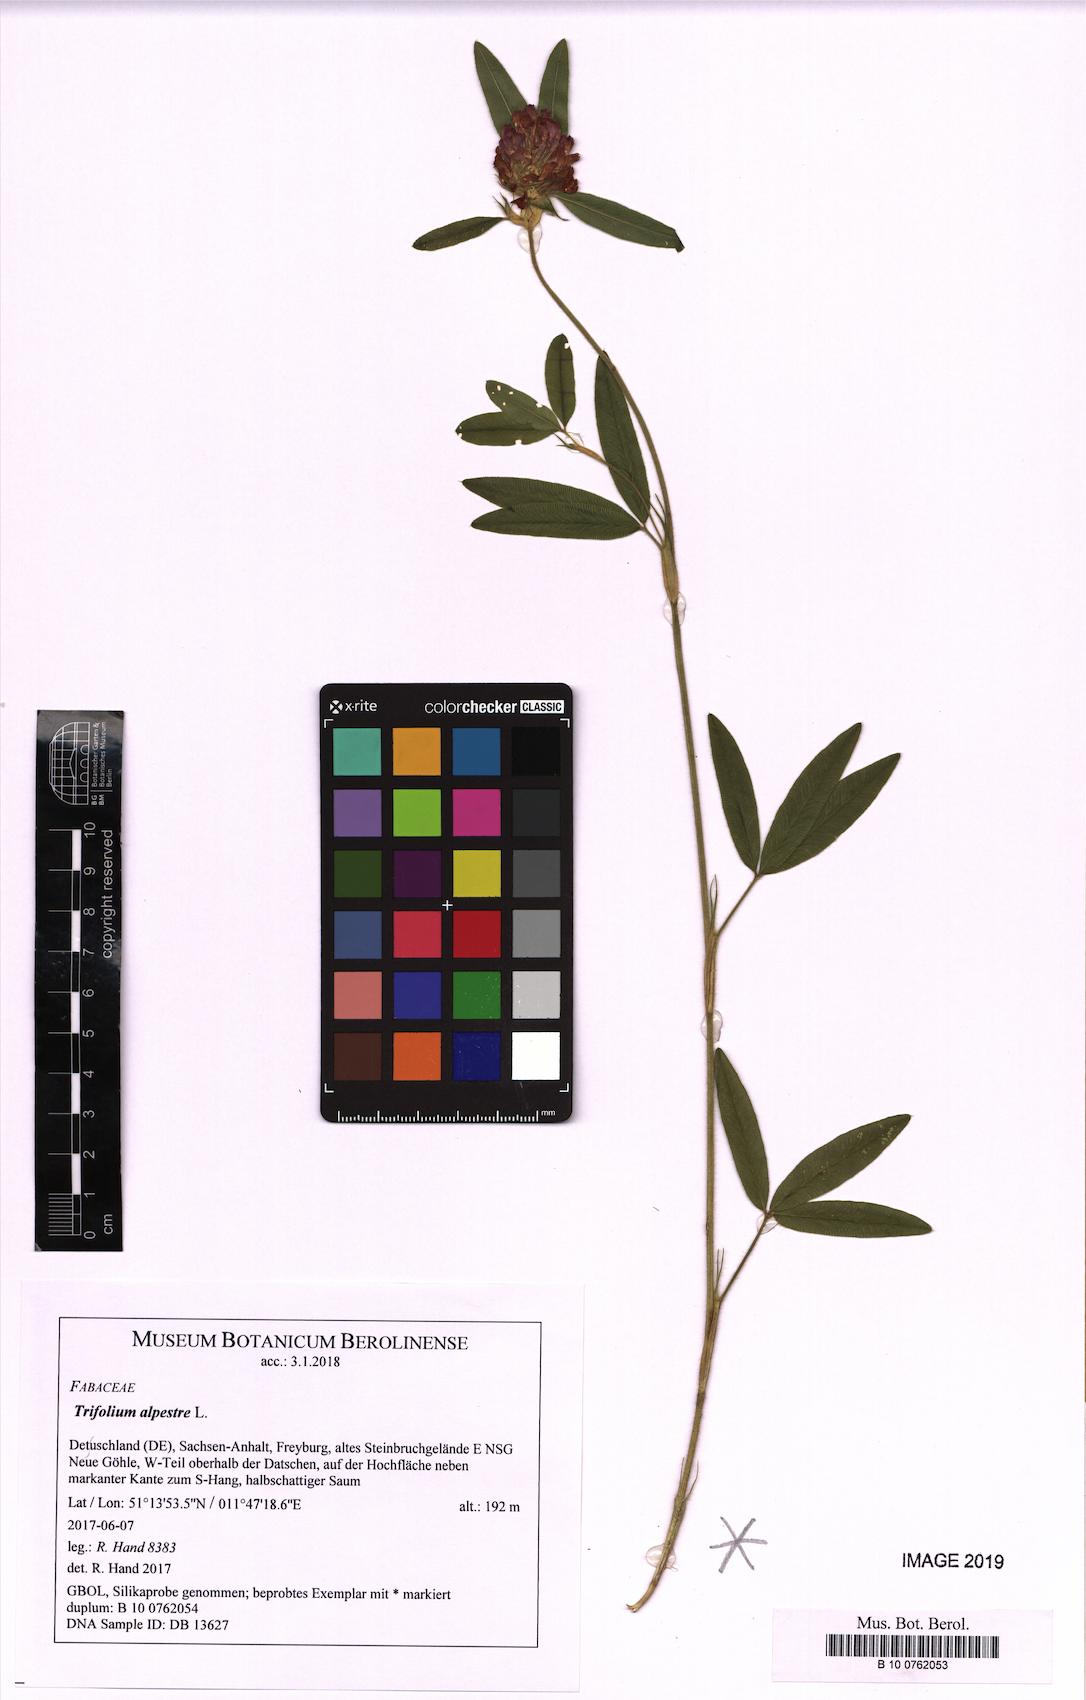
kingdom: Plantae
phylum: Tracheophyta
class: Magnoliopsida
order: Fabales
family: Fabaceae
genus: Trifolium
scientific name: Trifolium alpestre
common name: Owl-head clover
